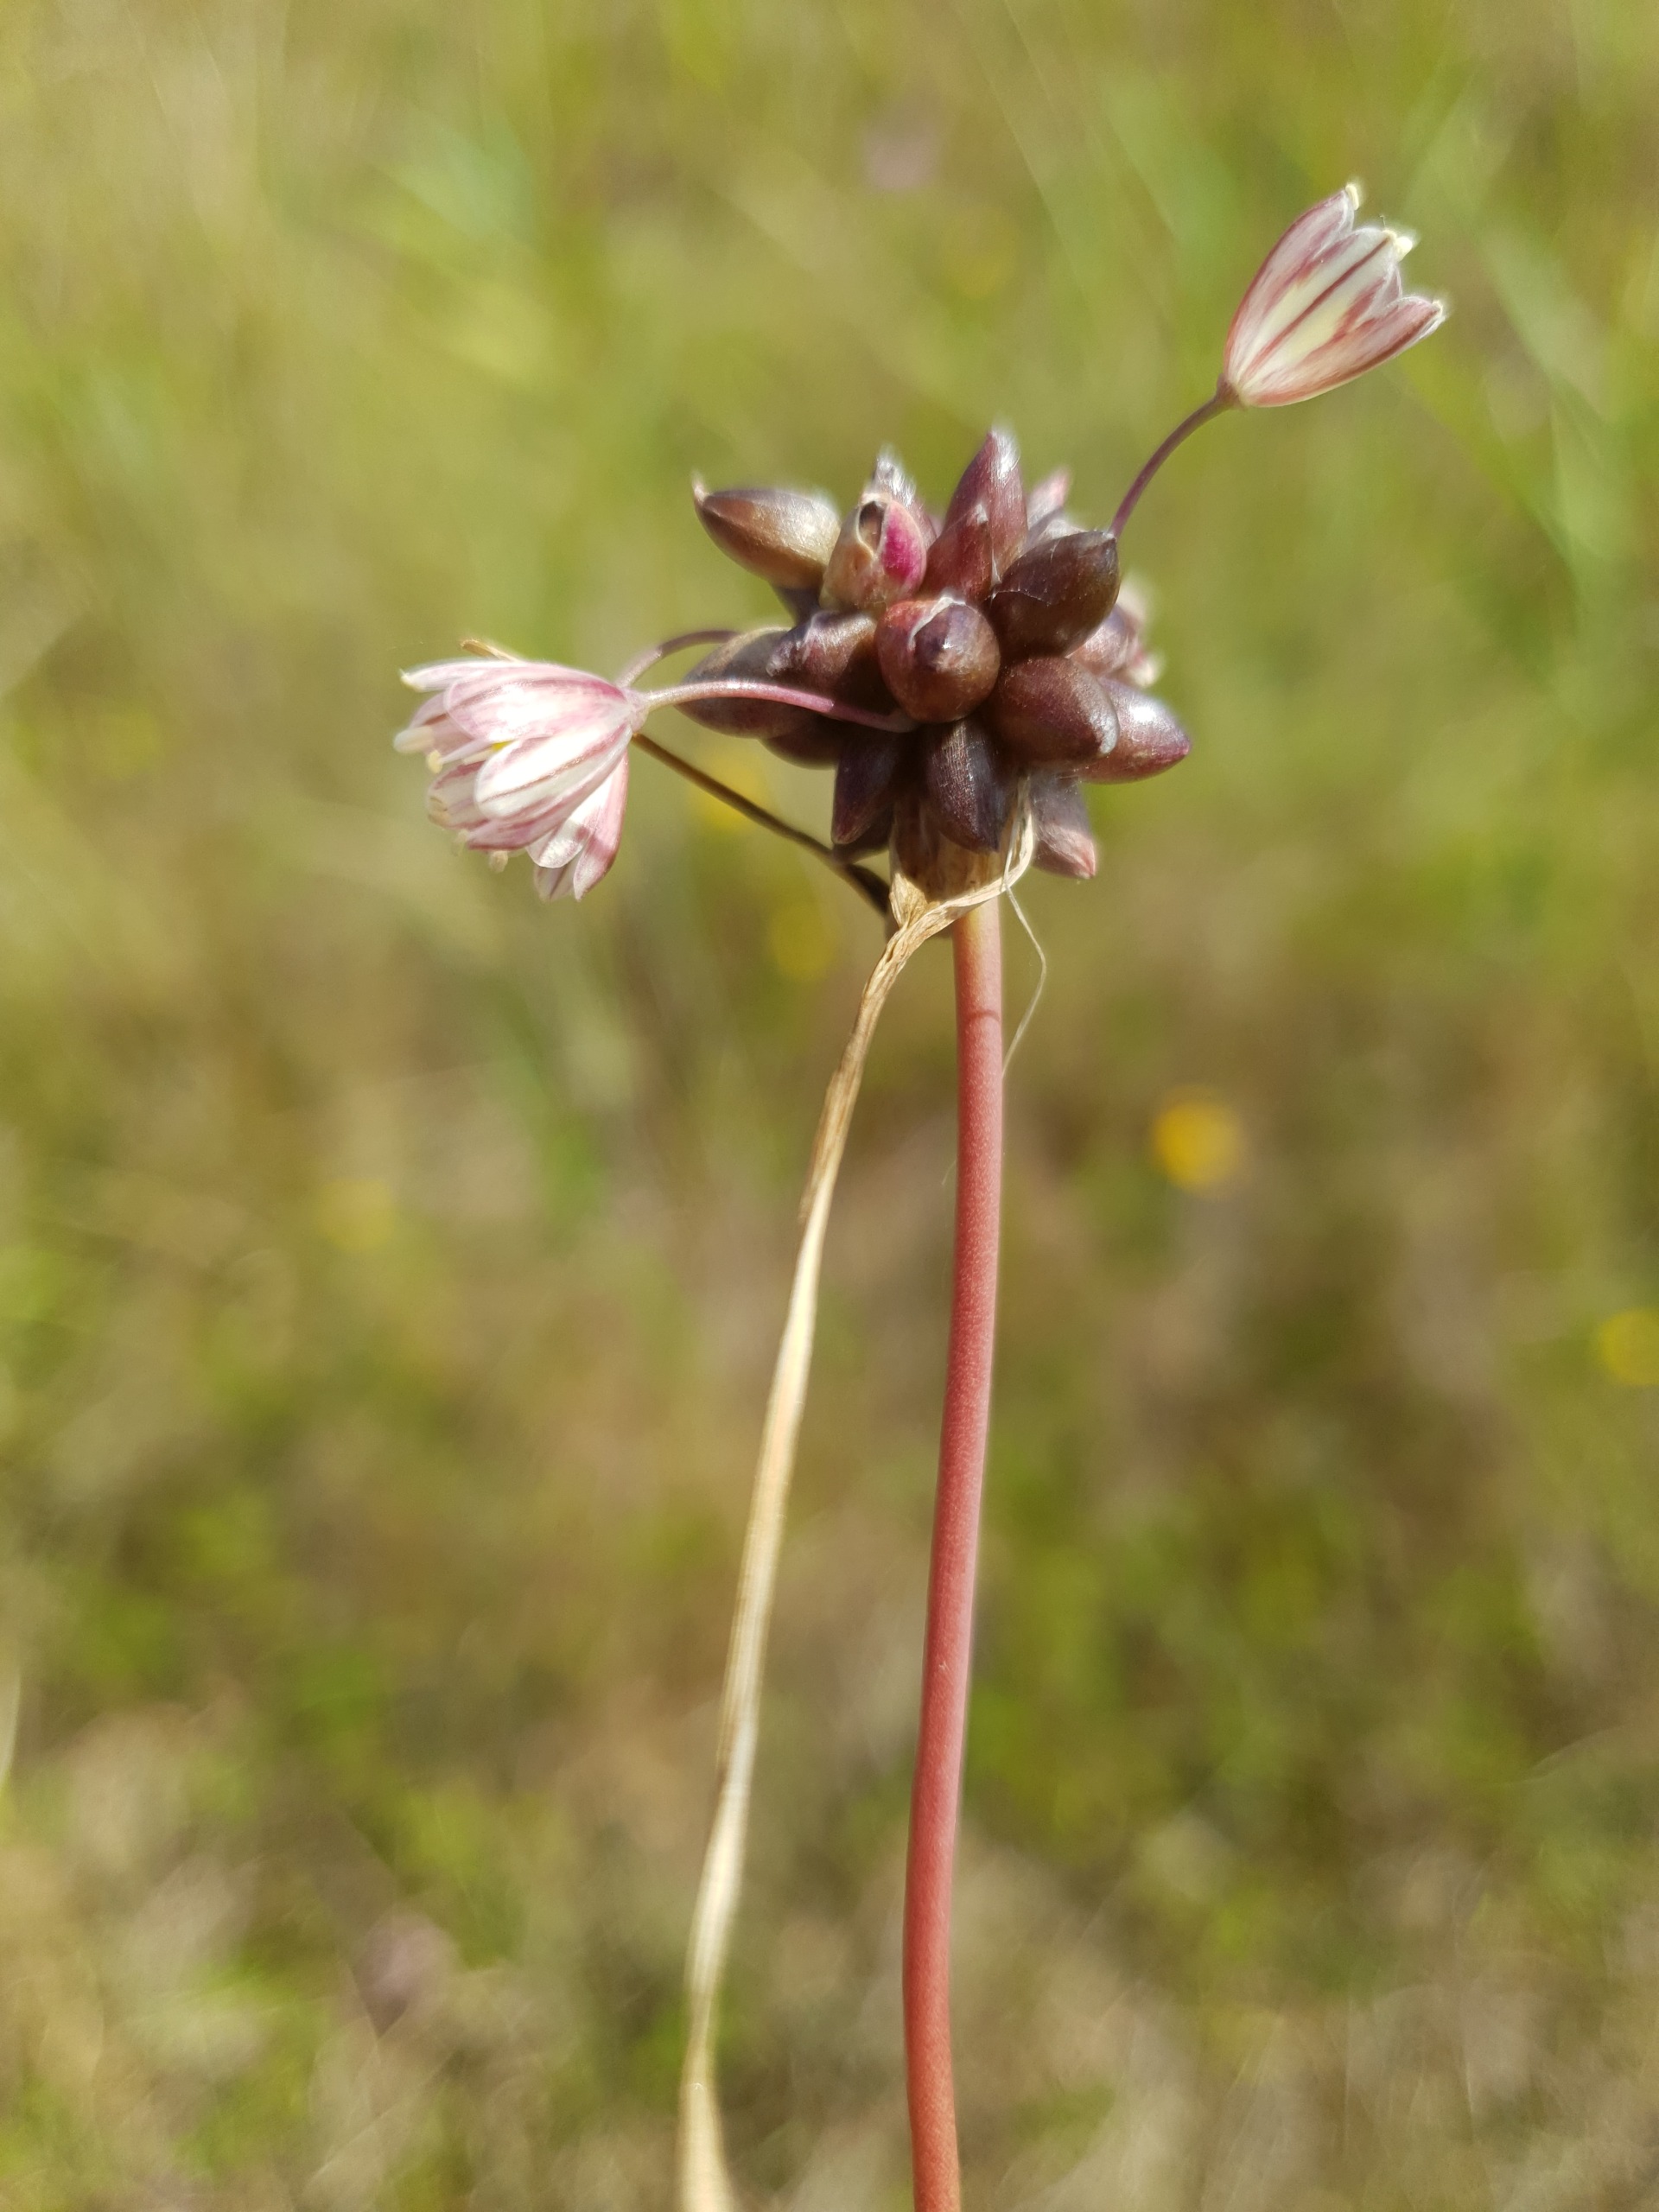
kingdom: Plantae
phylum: Tracheophyta
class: Liliopsida
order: Asparagales
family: Amaryllidaceae
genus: Allium
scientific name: Allium oleraceum
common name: Vild løg
